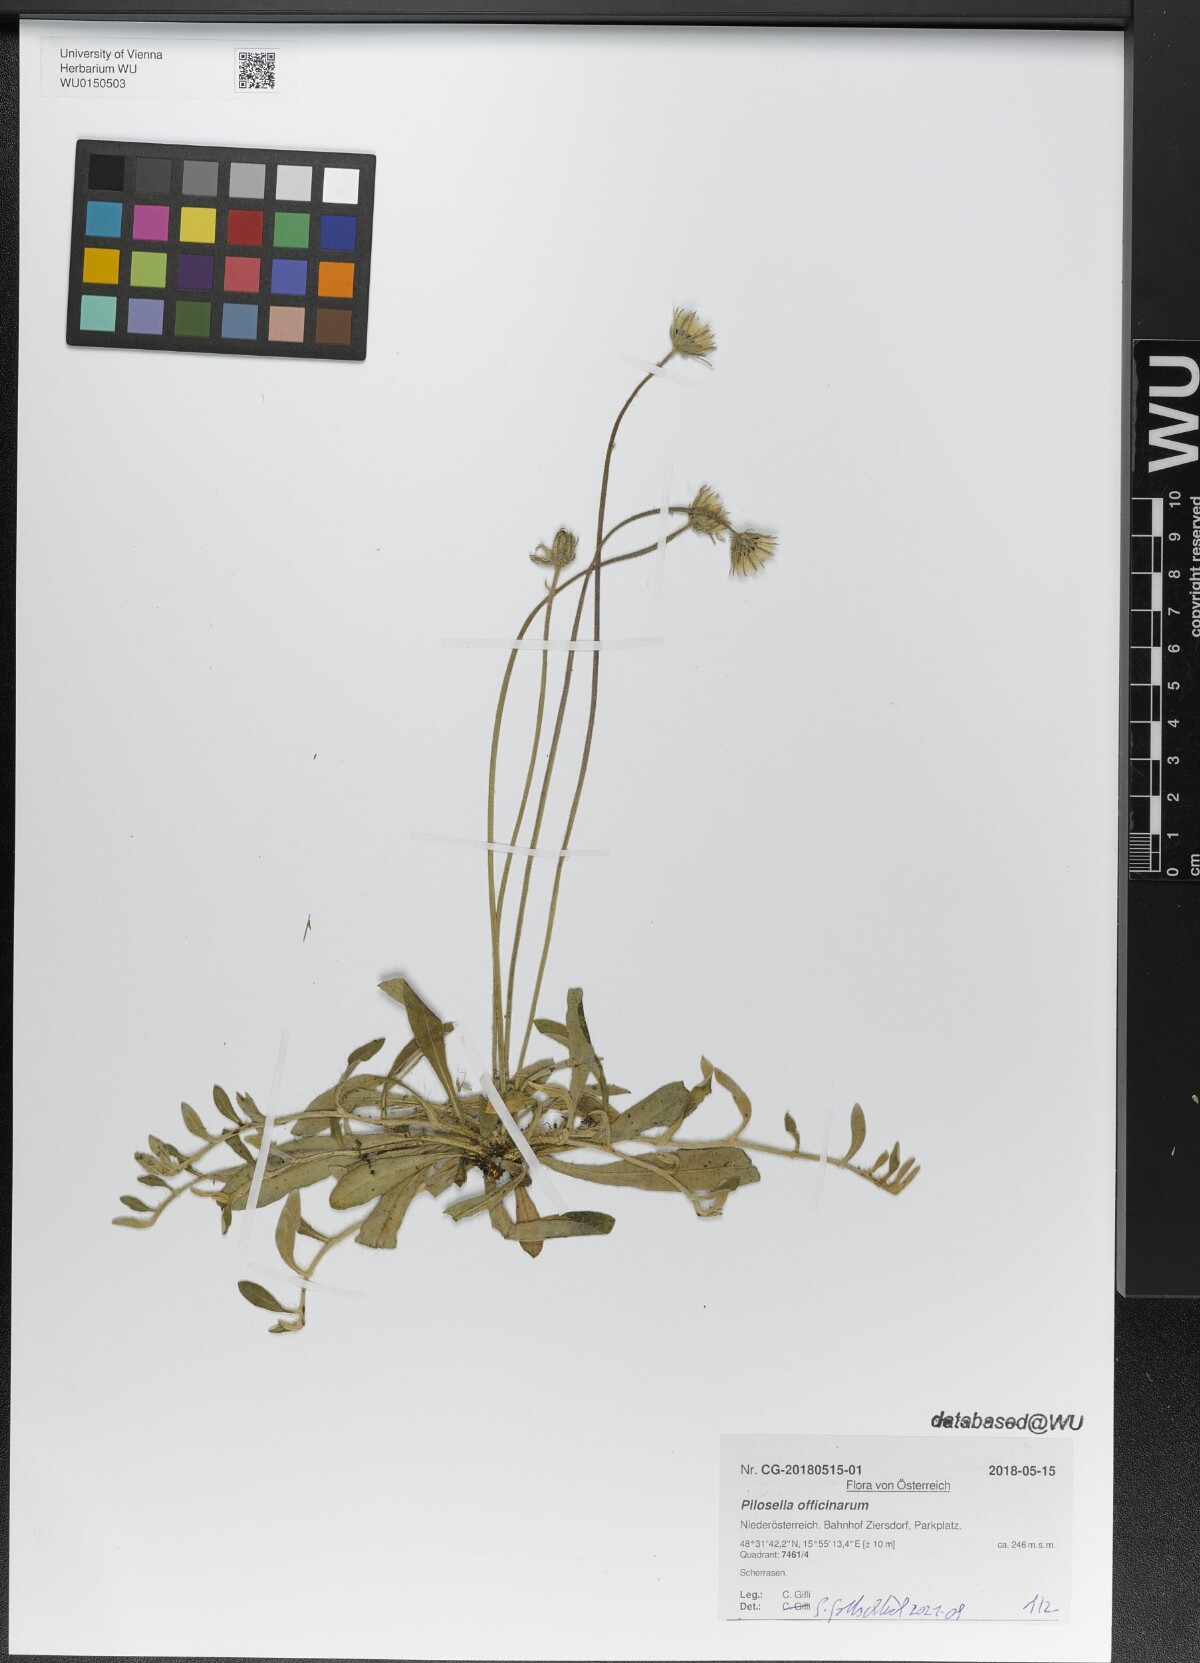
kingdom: Plantae
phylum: Tracheophyta
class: Magnoliopsida
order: Asterales
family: Asteraceae
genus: Pilosella
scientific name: Pilosella officinarum
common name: Mouse-ear hawkweed
